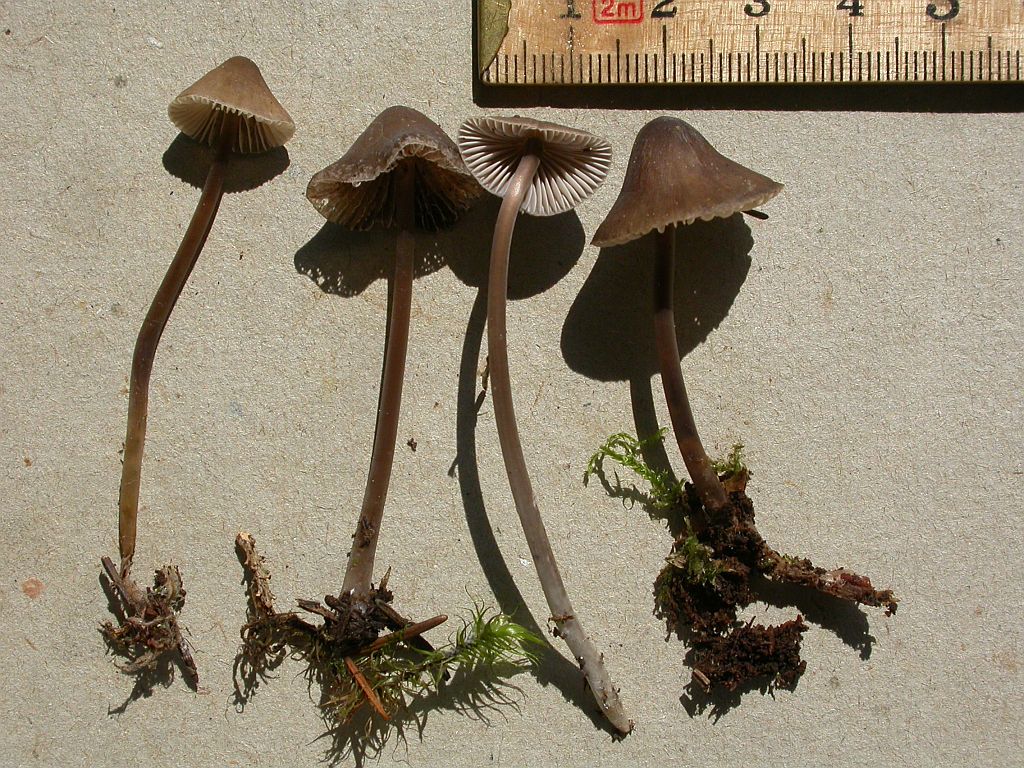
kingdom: Fungi
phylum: Basidiomycota
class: Agaricomycetes
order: Agaricales
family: Mycenaceae
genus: Mycena
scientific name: Mycena silvae-nigrae
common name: tidlig huesvamp
